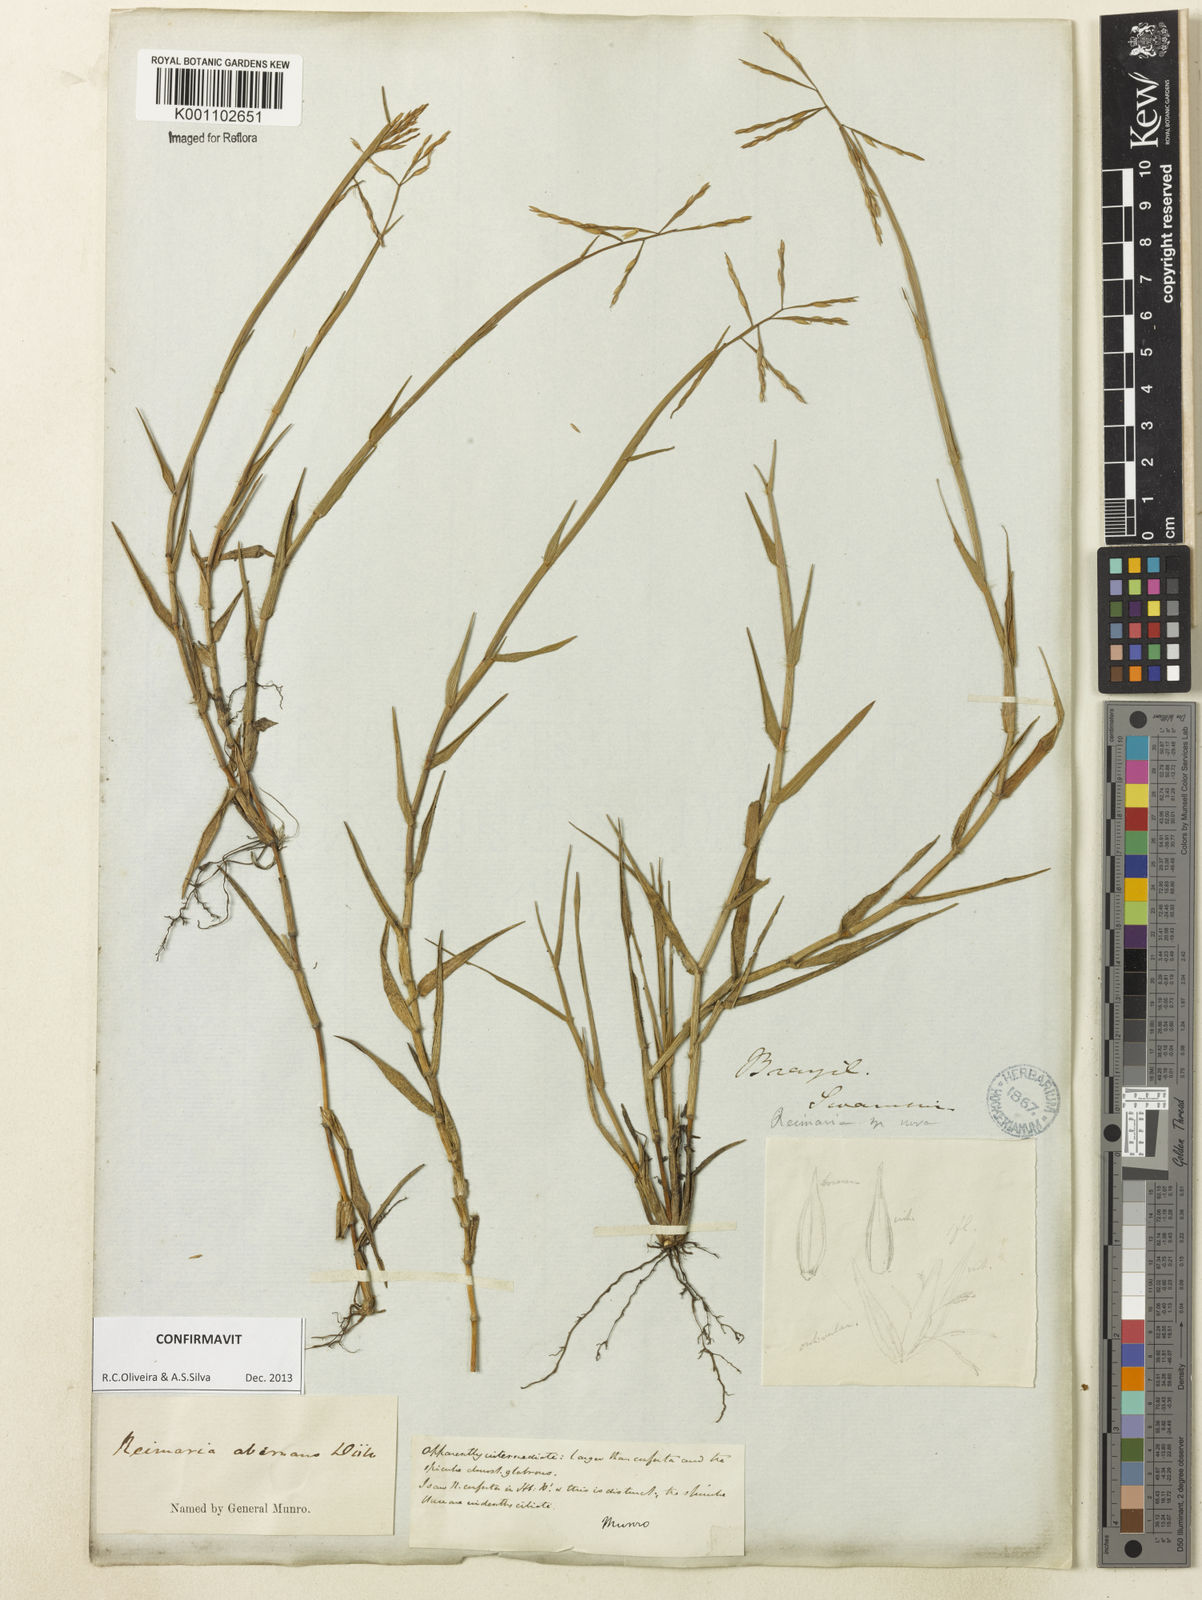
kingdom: Plantae
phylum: Tracheophyta
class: Liliopsida
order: Poales
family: Poaceae
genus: Paspalum
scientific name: Paspalum
